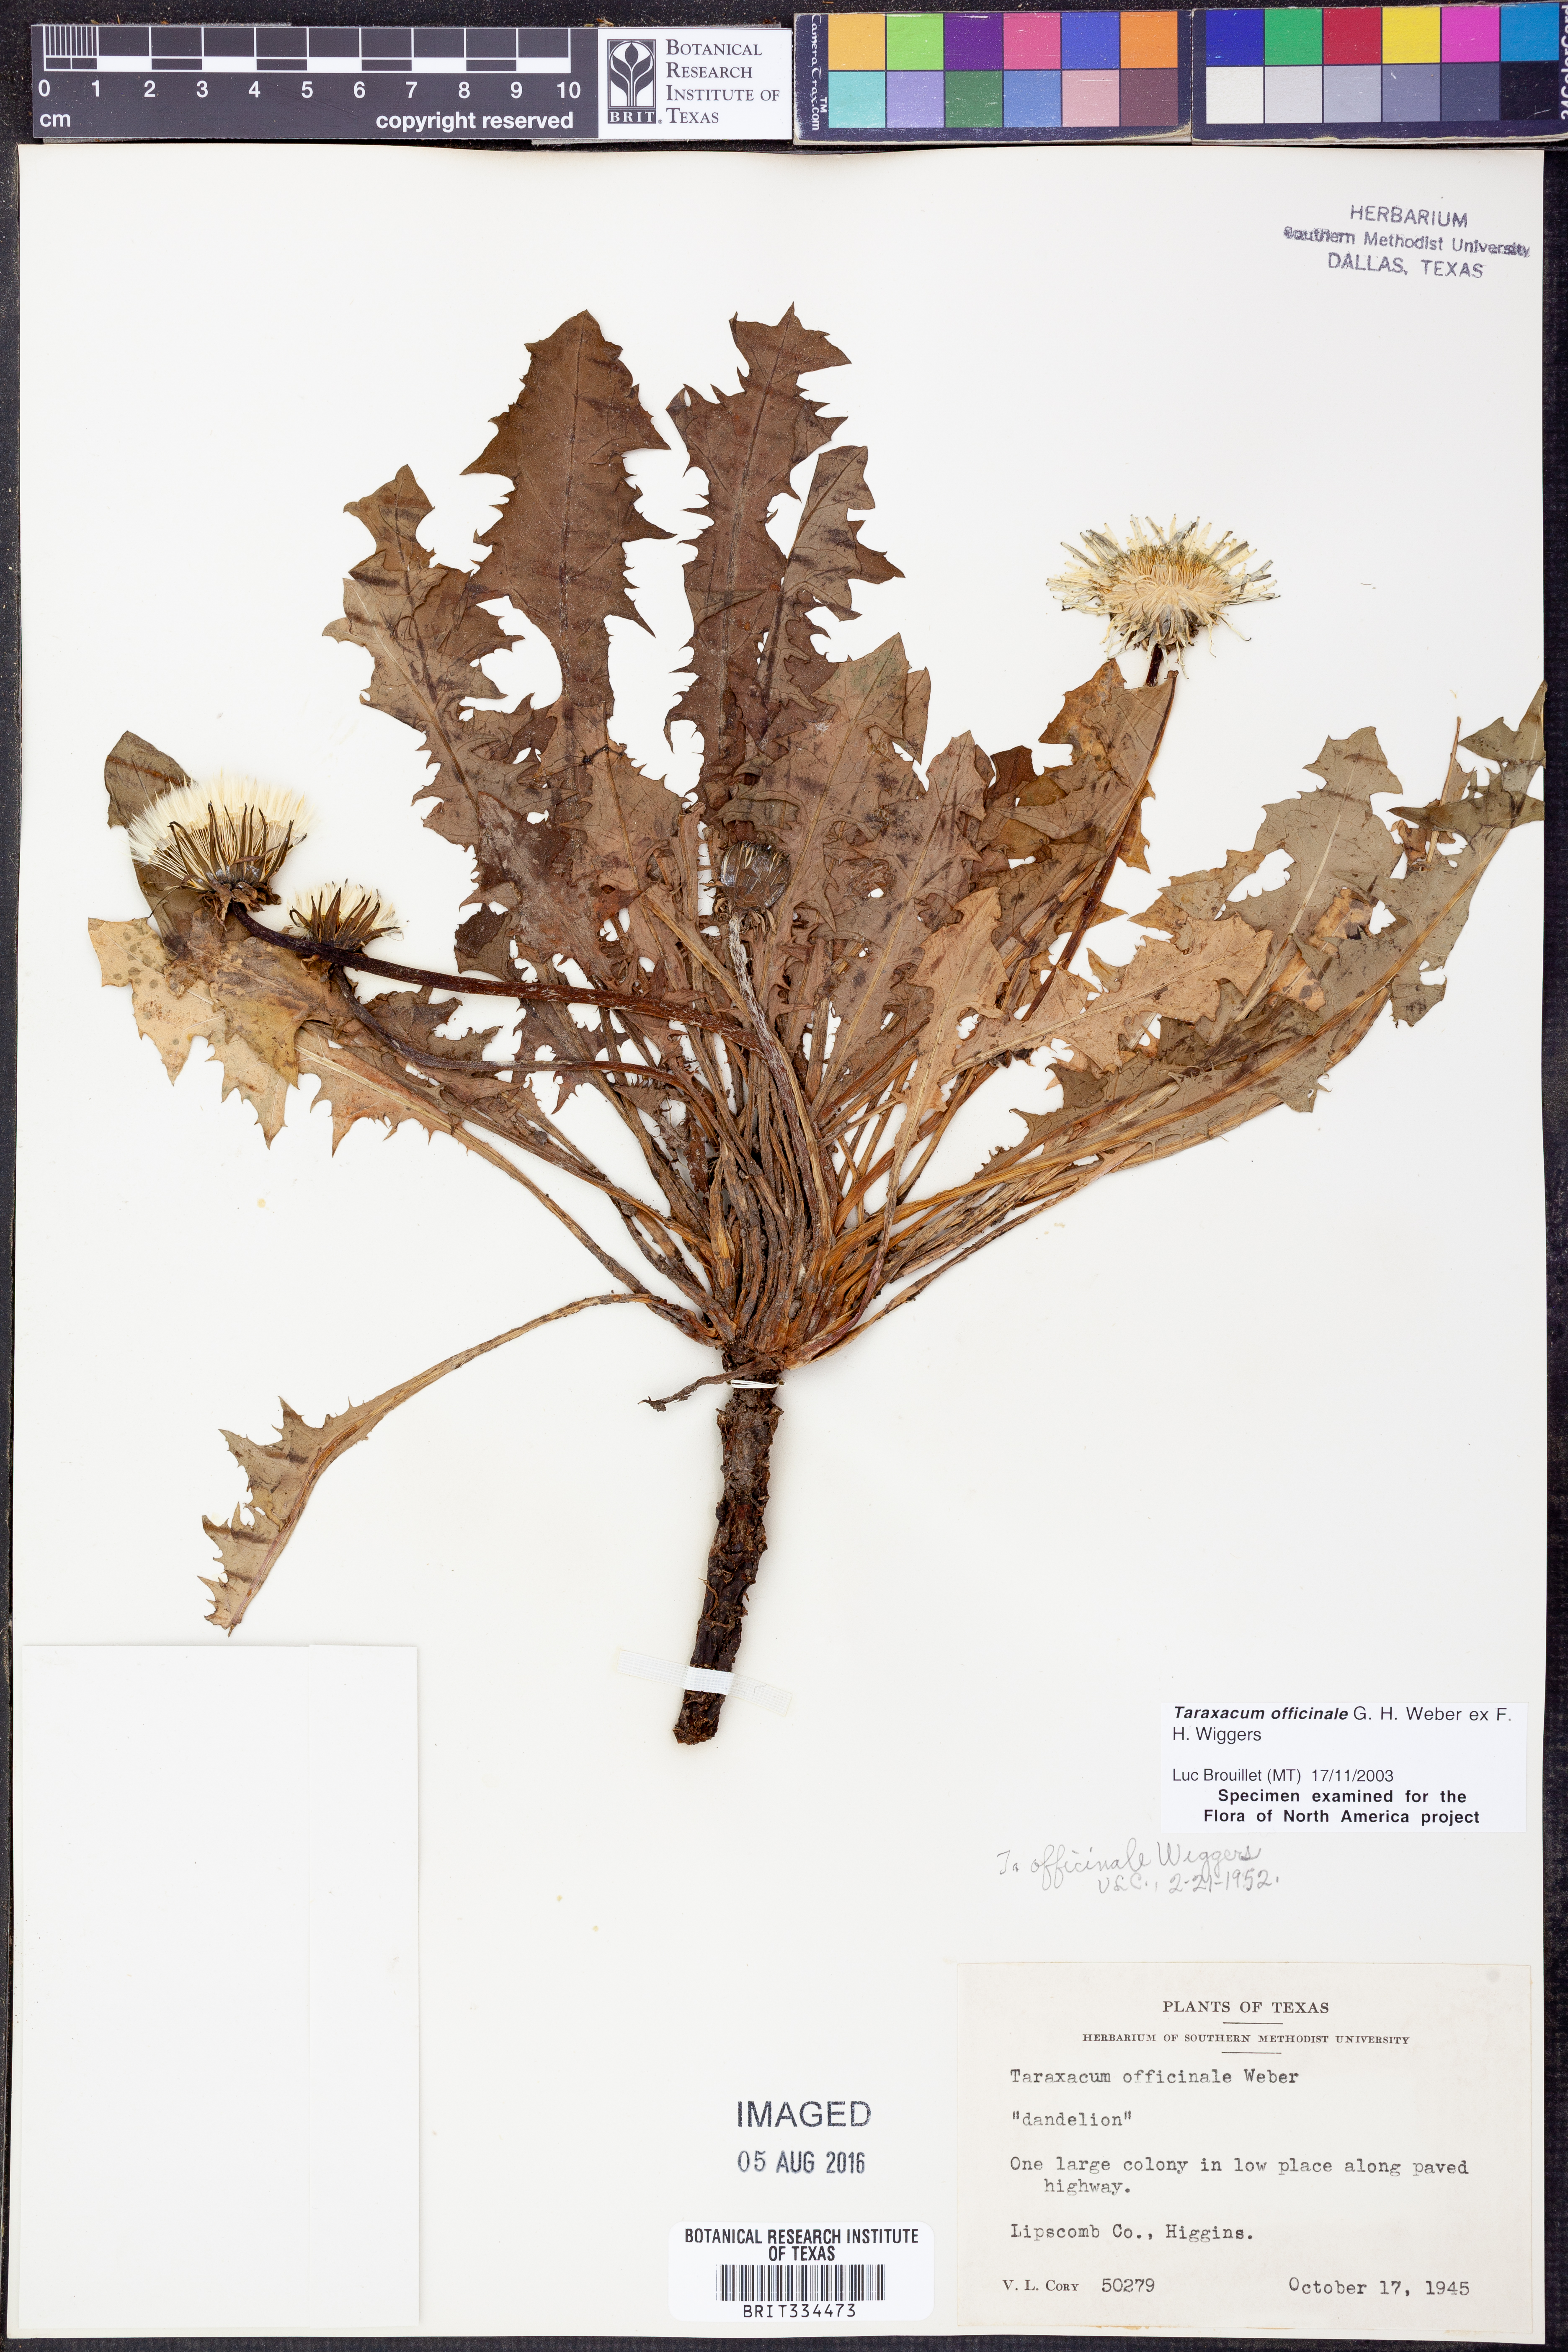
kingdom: Plantae
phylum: Tracheophyta
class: Magnoliopsida
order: Asterales
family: Asteraceae
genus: Taraxacum
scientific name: Taraxacum officinale
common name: Common dandelion
